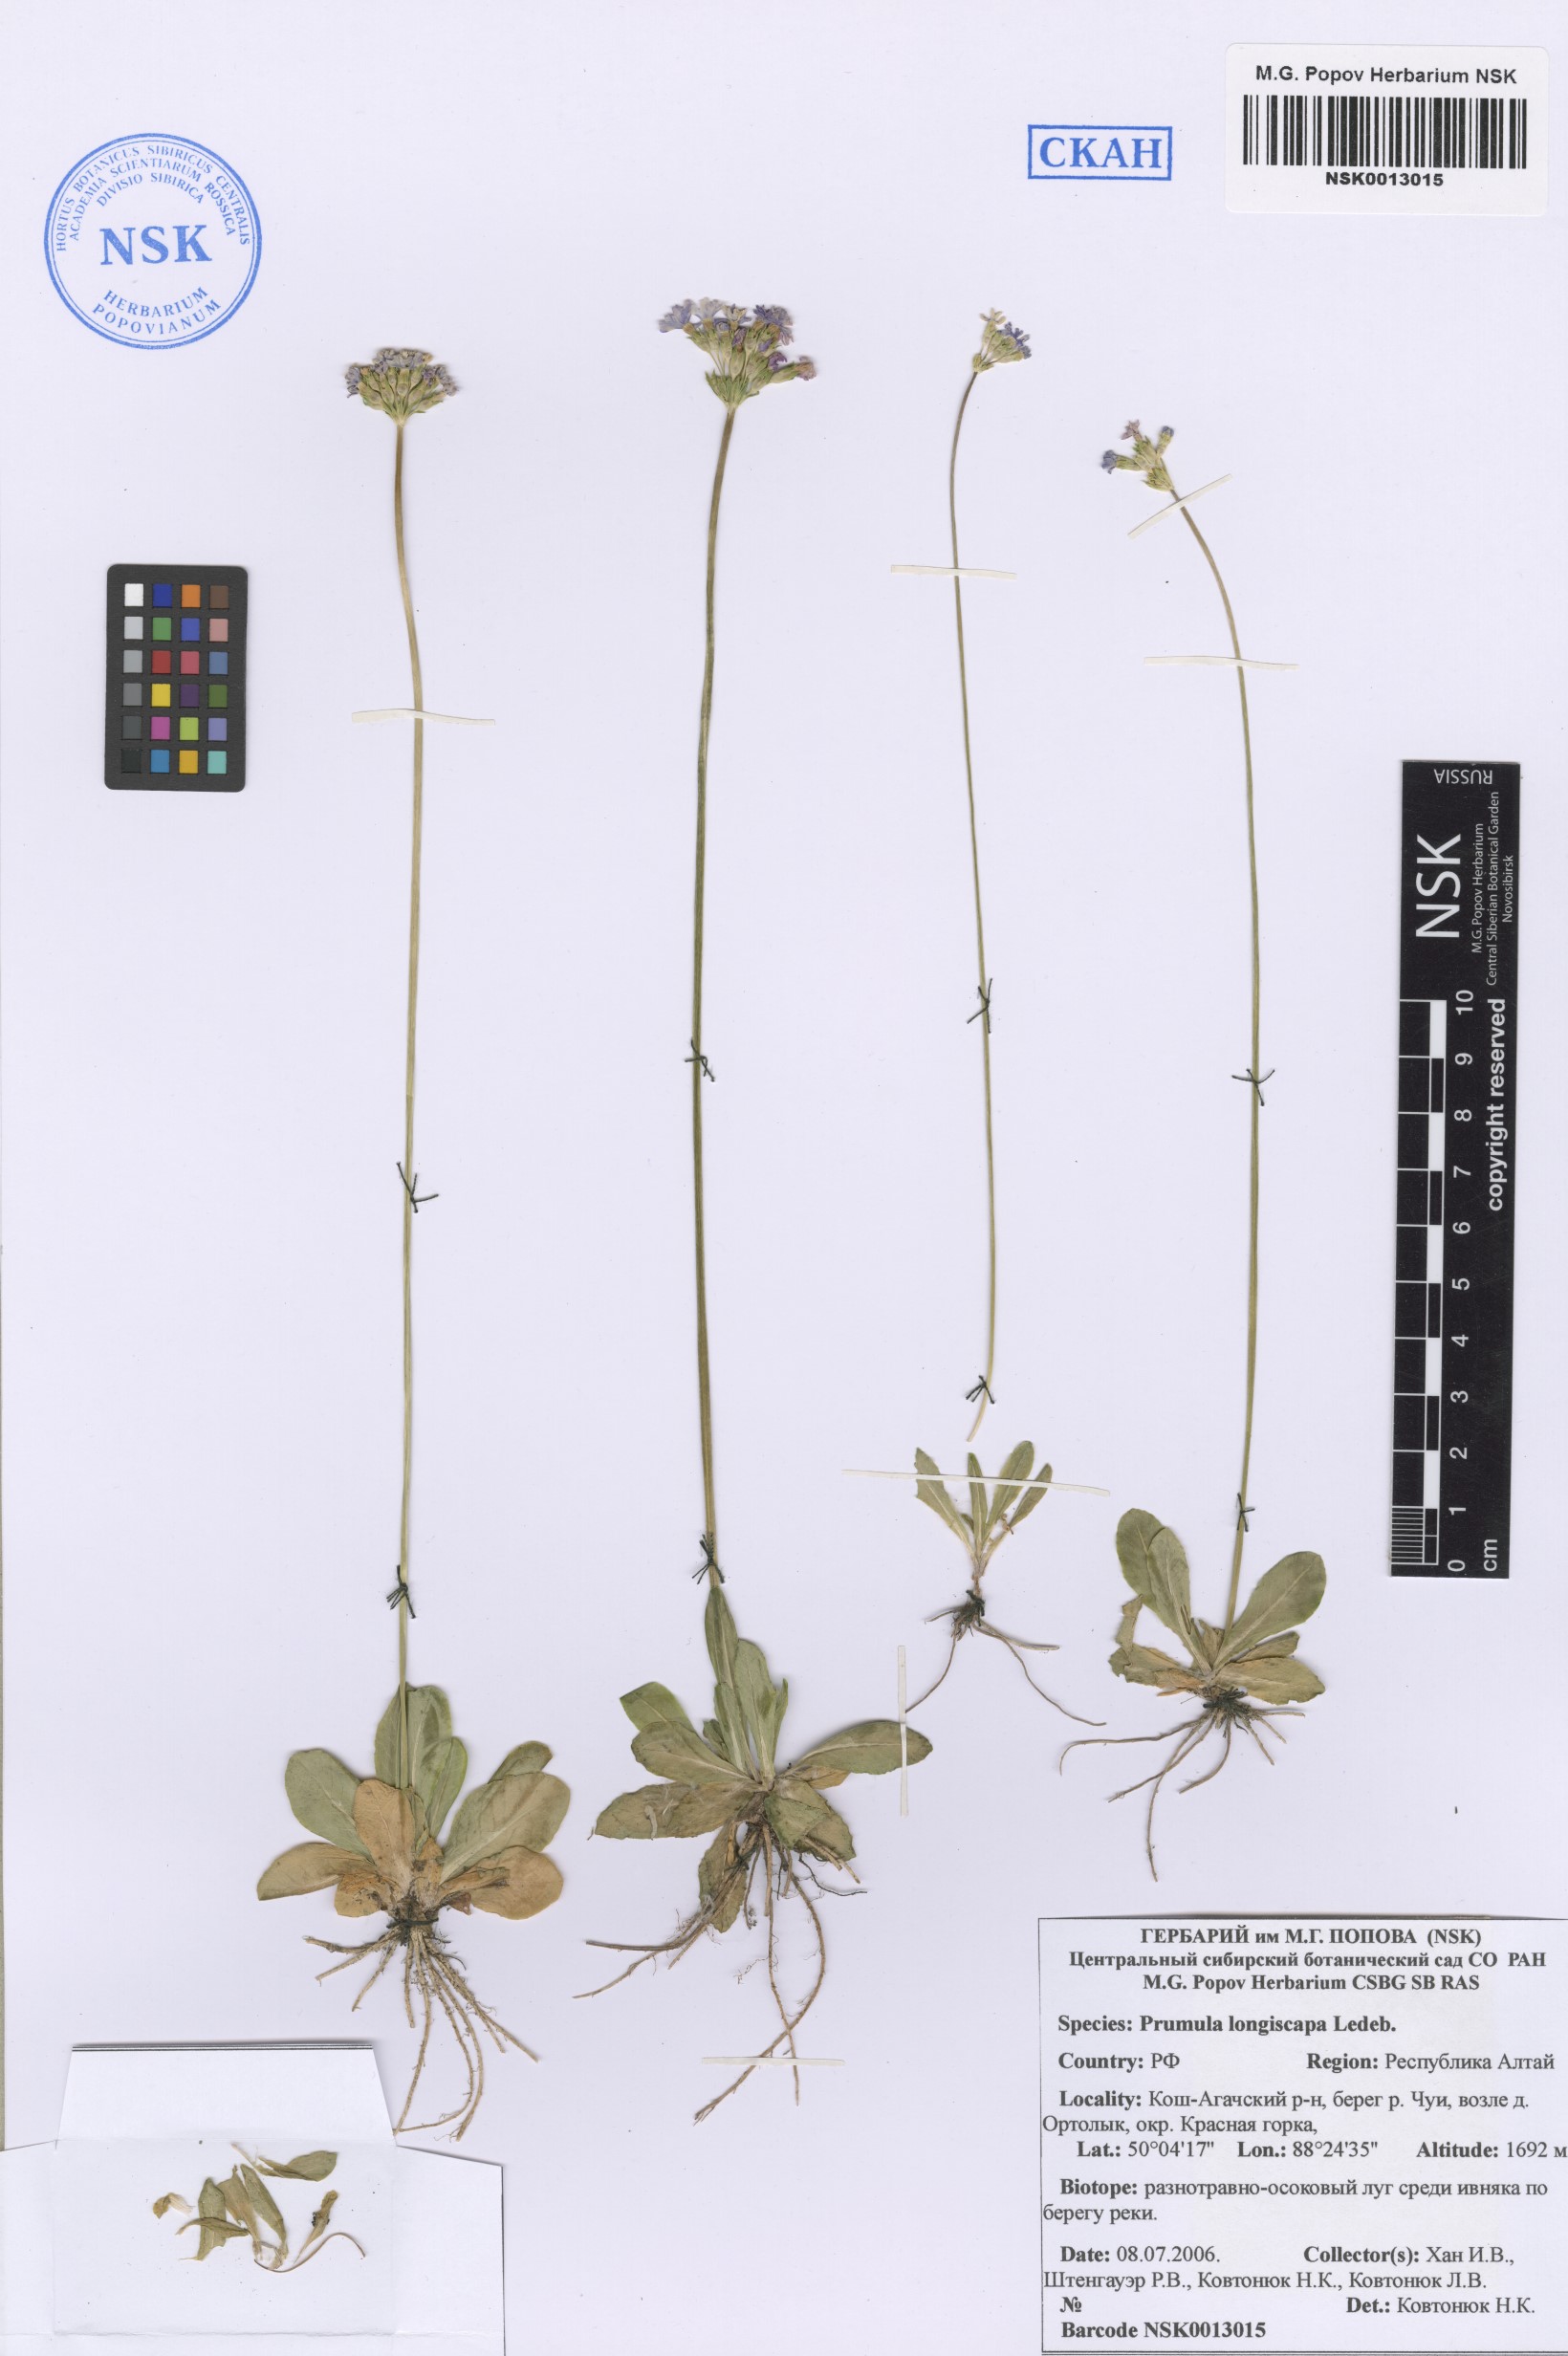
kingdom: Plantae
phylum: Tracheophyta
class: Magnoliopsida
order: Ericales
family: Primulaceae
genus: Primula
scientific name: Primula longiscapa
